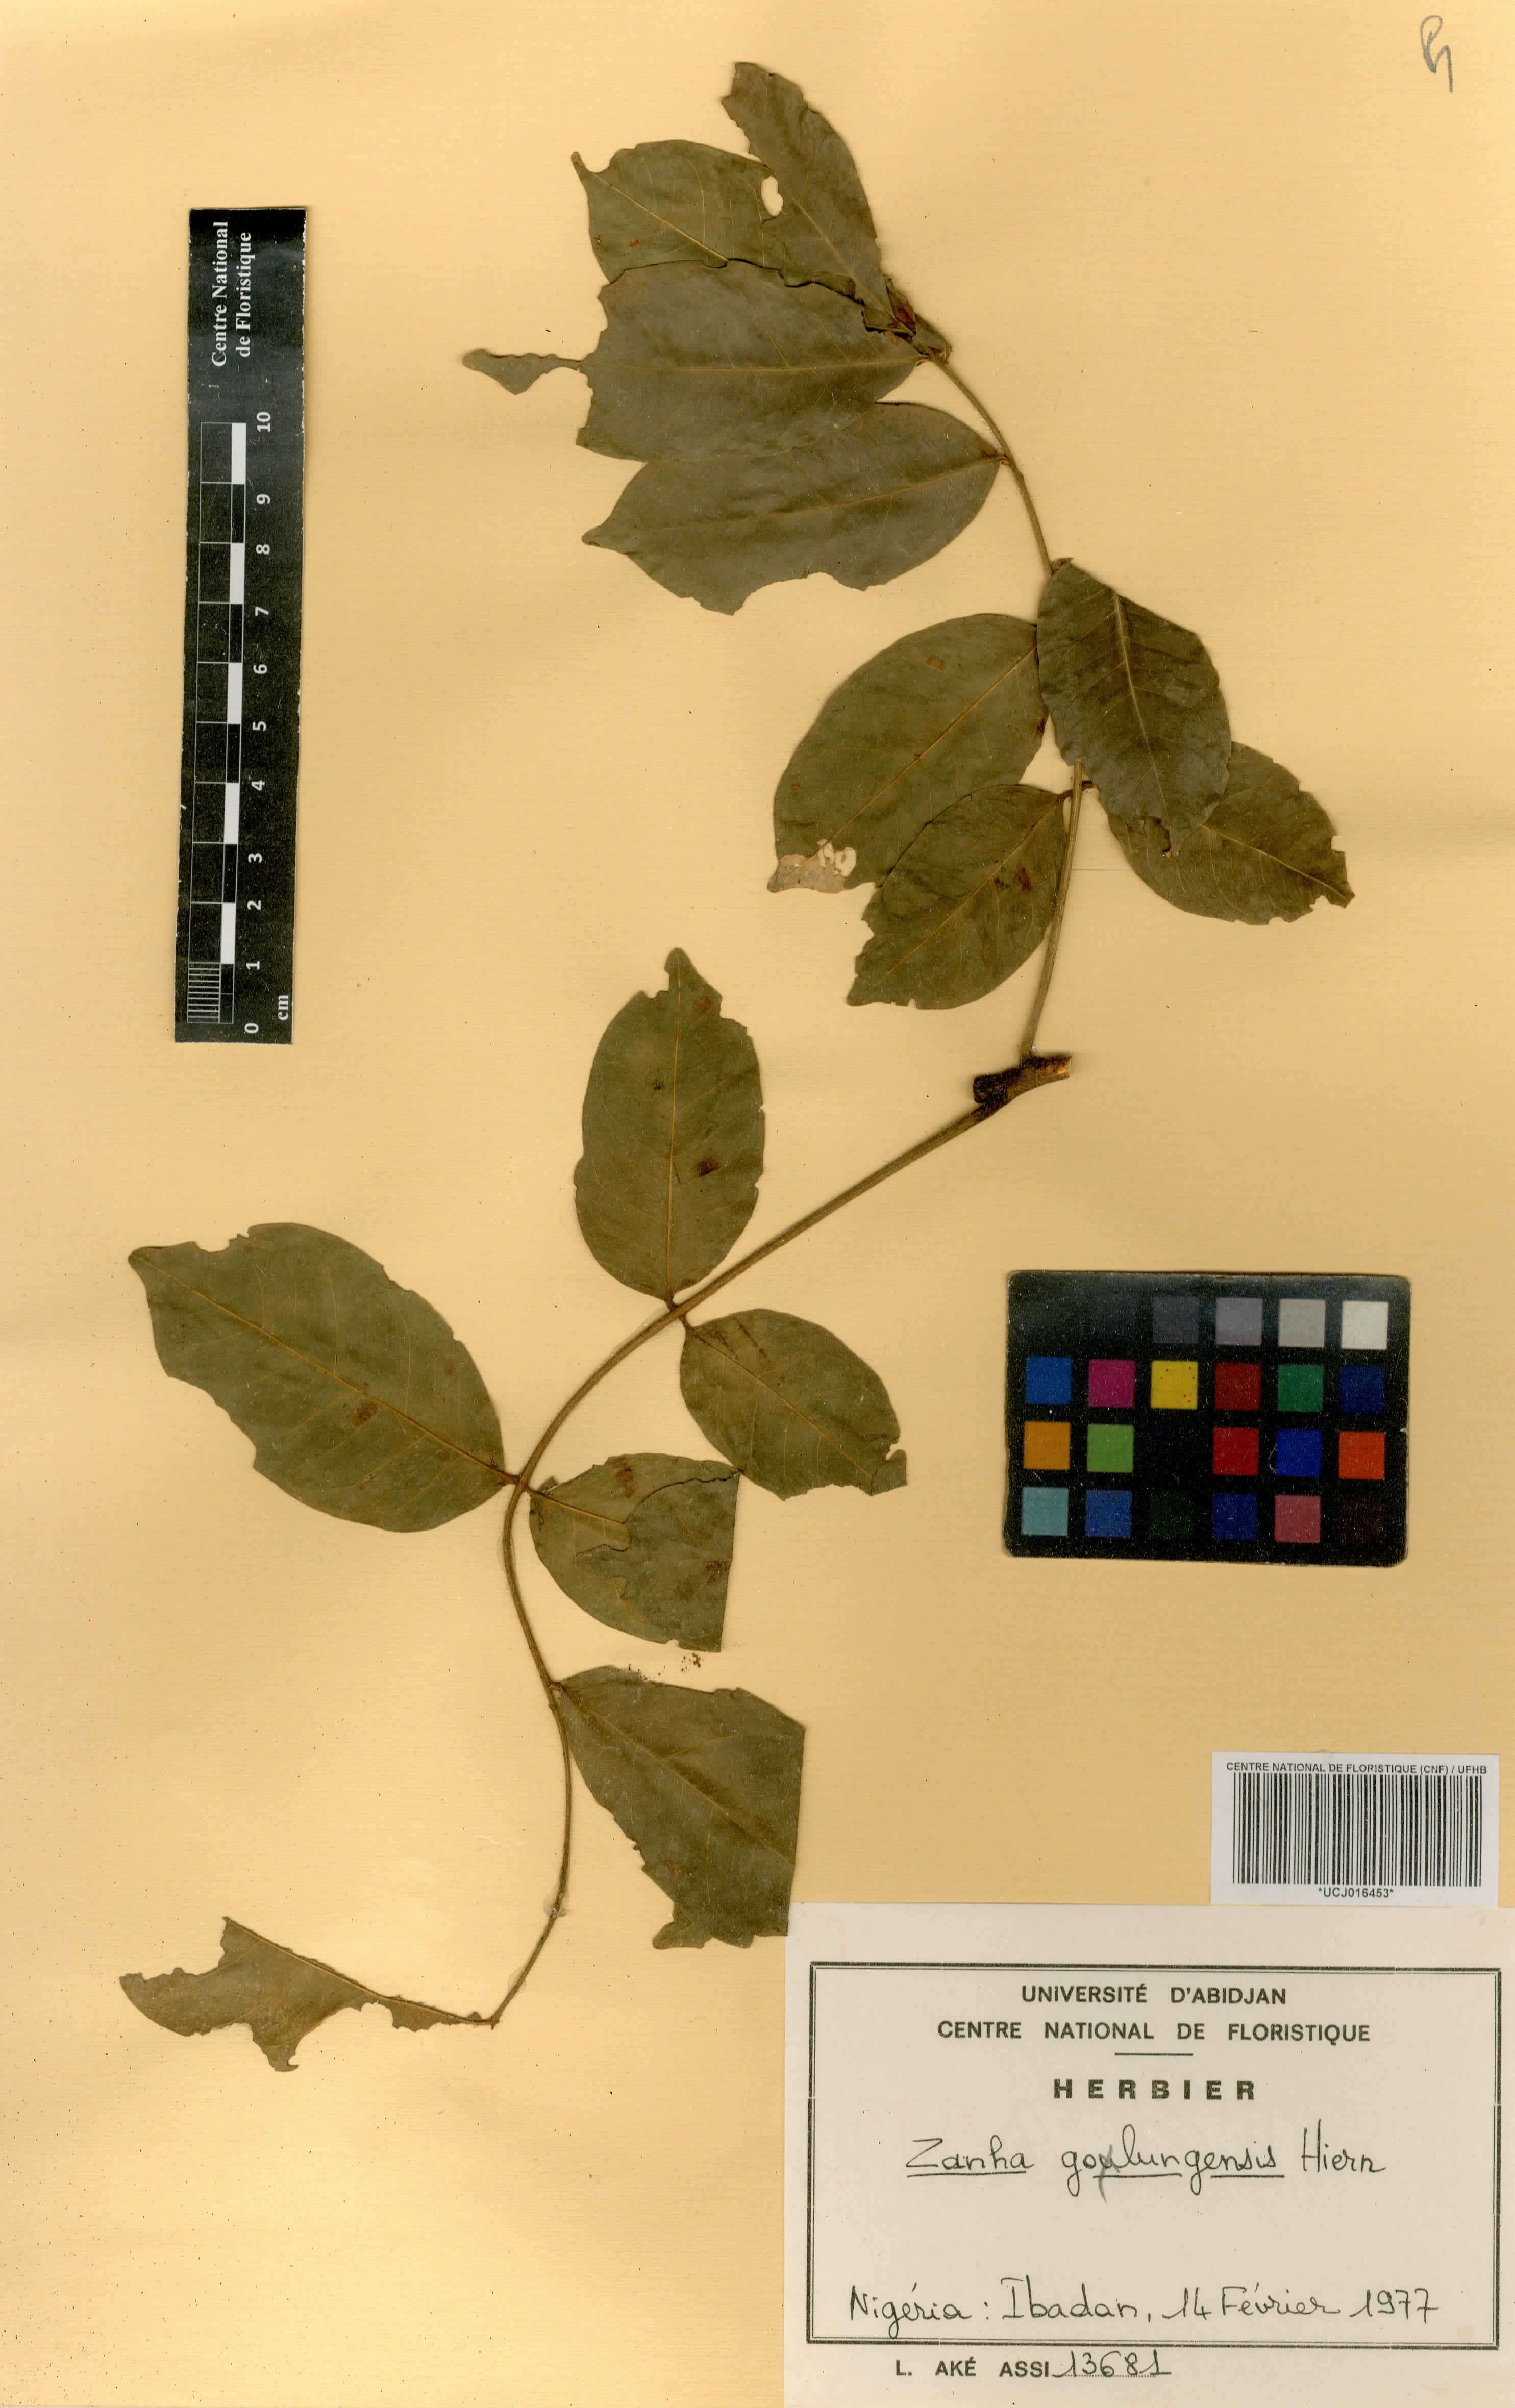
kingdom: Plantae
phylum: Tracheophyta
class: Magnoliopsida
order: Sapindales
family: Sapindaceae
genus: Zanha
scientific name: Zanha golungensis
